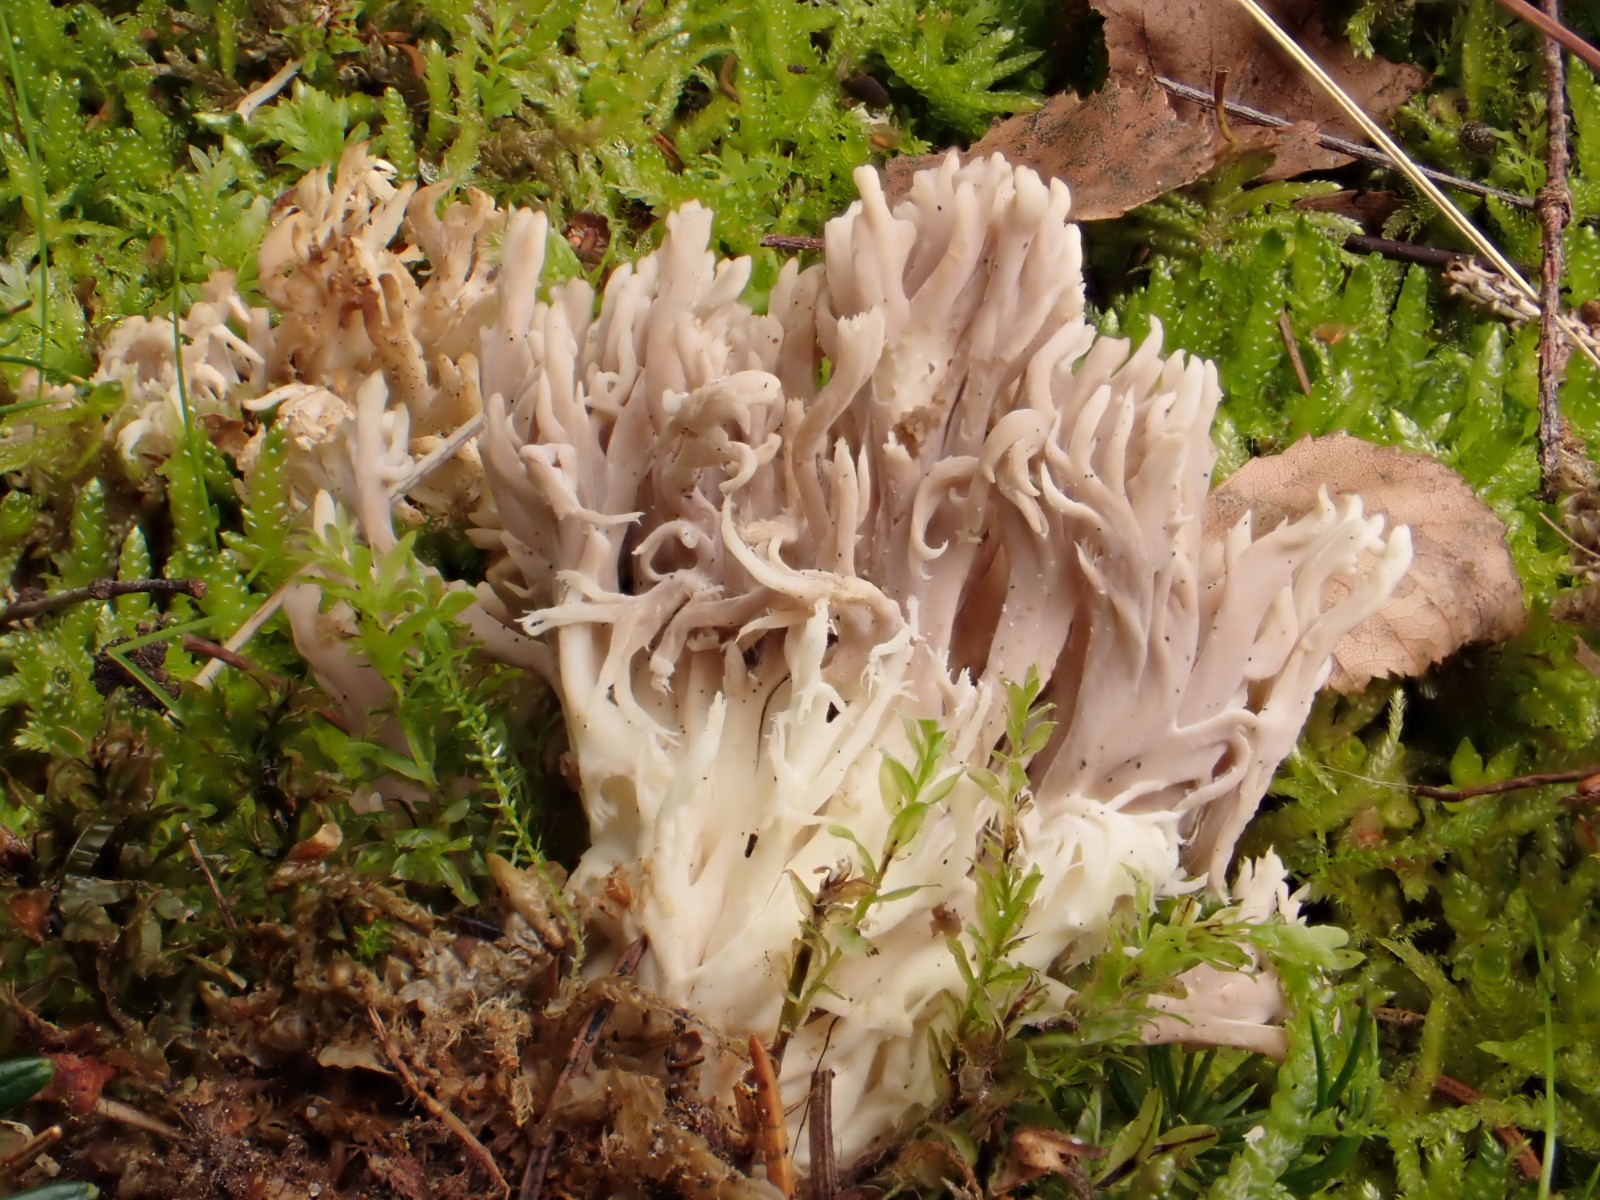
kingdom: Fungi
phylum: Basidiomycota
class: Agaricomycetes
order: Cantharellales
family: Hydnaceae
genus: Clavulina
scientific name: Clavulina
